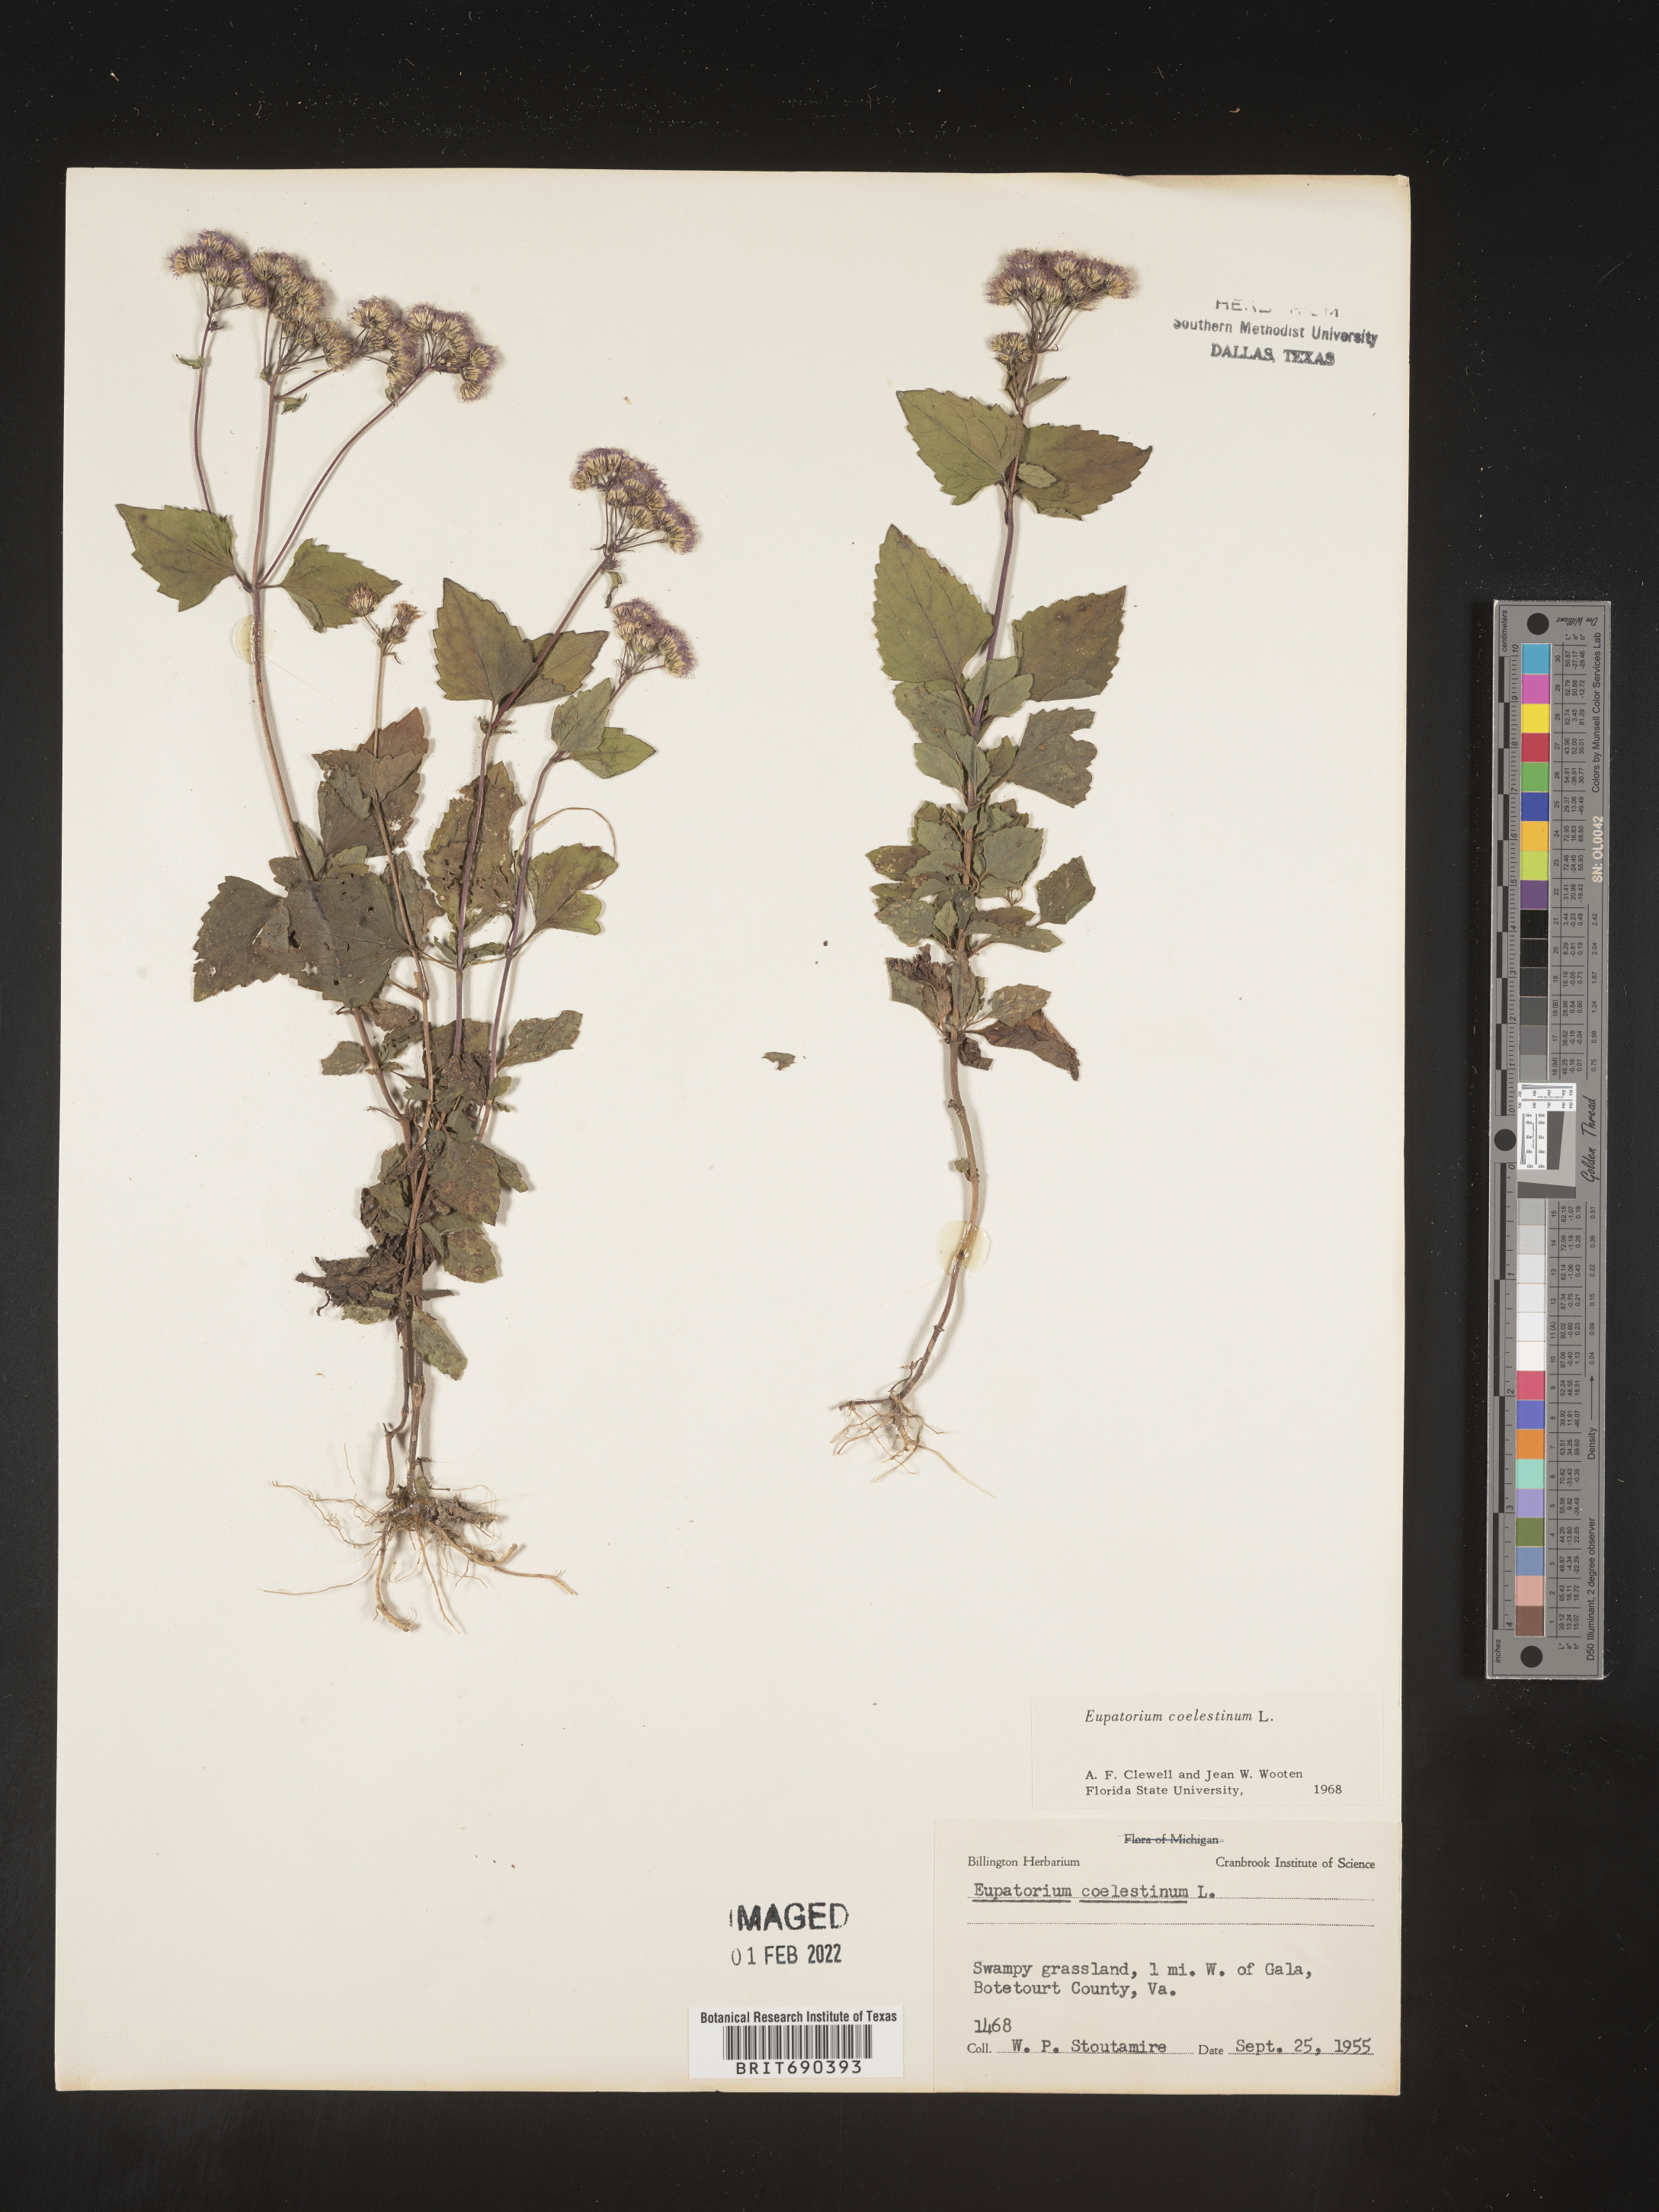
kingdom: Plantae
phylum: Tracheophyta
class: Magnoliopsida
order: Asterales
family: Asteraceae
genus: Conoclinium
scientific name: Conoclinium coelestinum
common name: Blue mistflower
